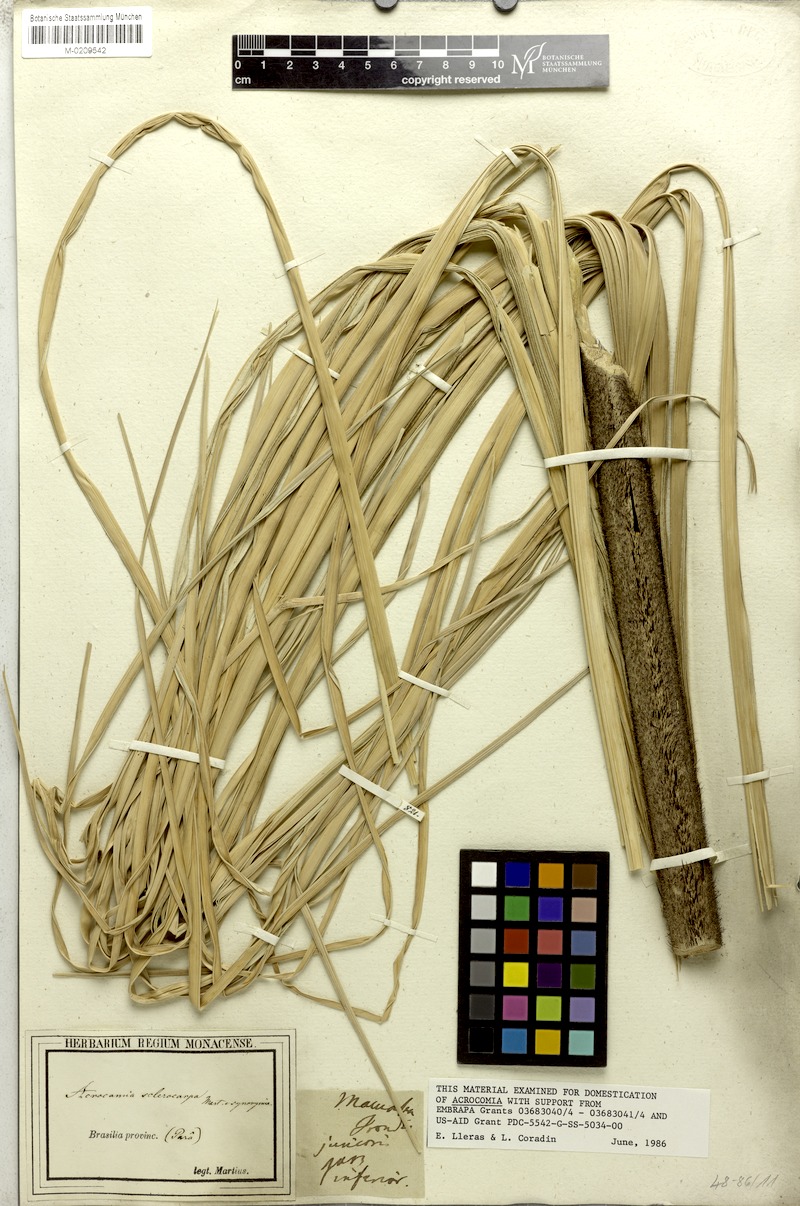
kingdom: Plantae
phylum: Tracheophyta
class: Liliopsida
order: Arecales
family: Arecaceae
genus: Acrocomia
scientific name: Acrocomia aculeata
